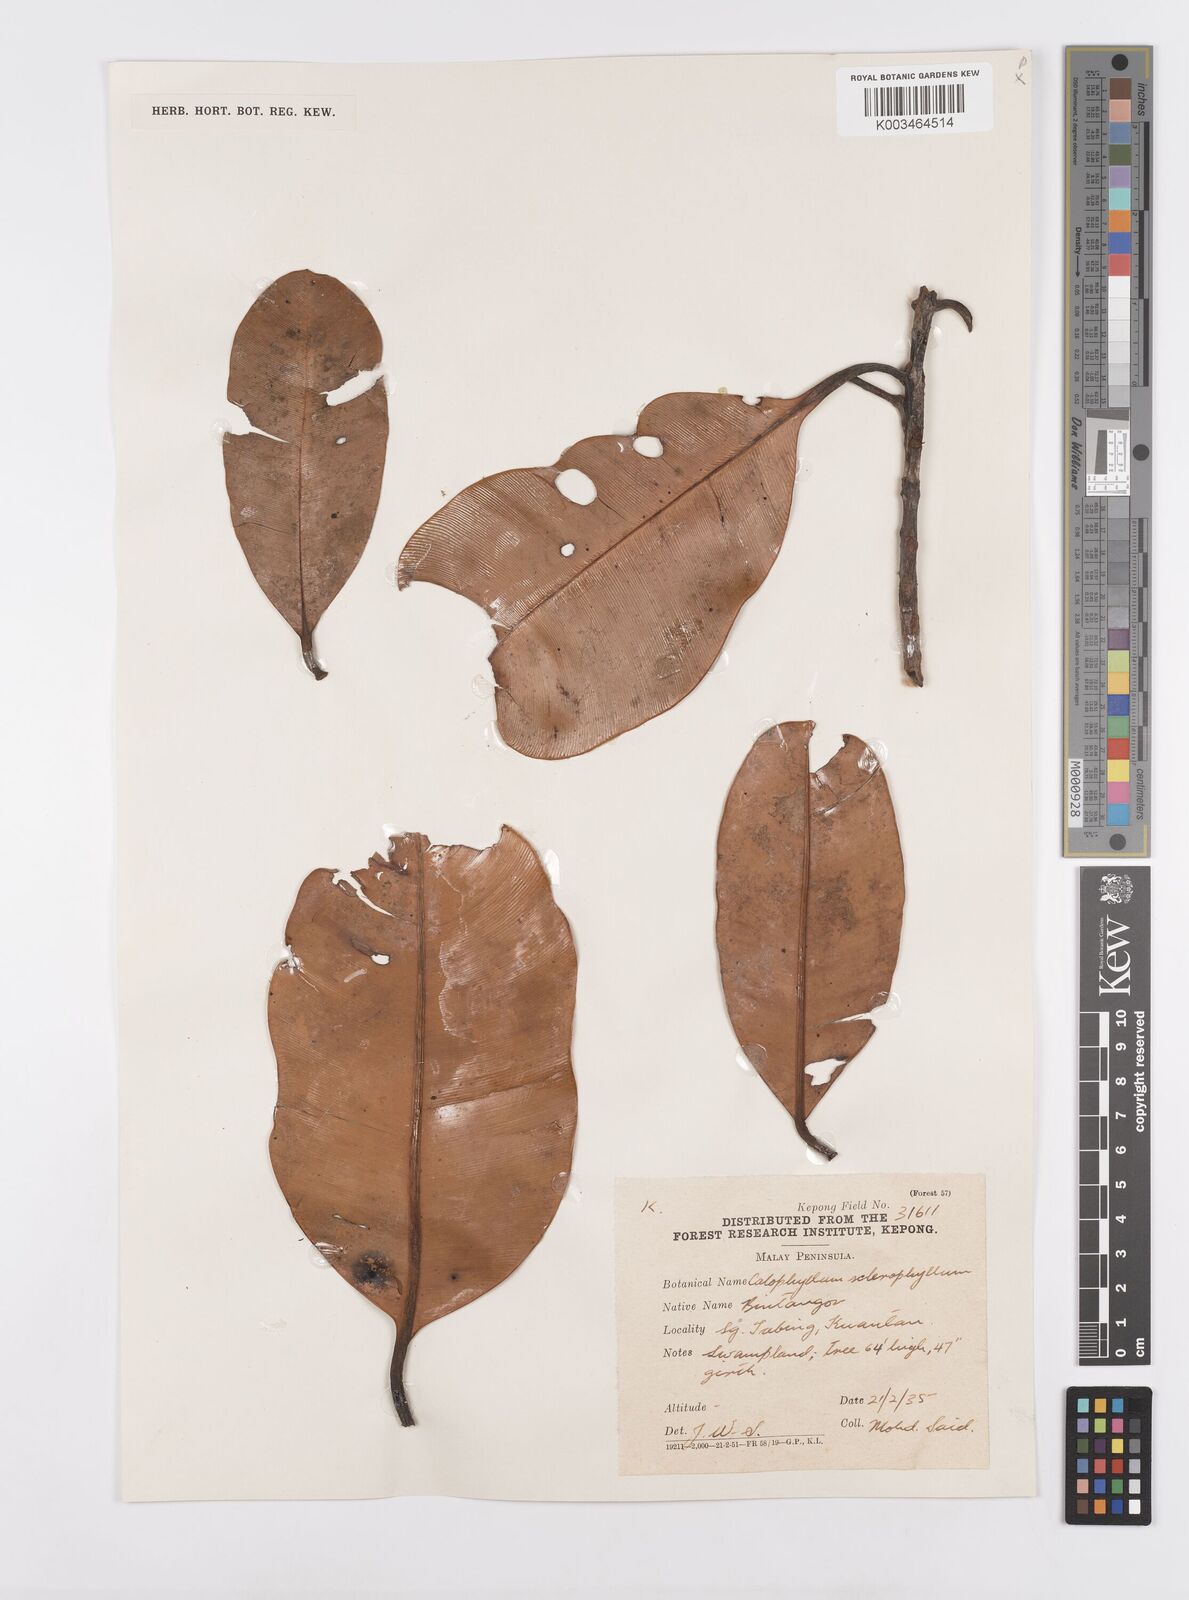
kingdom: Plantae
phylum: Tracheophyta
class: Magnoliopsida
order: Malpighiales
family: Calophyllaceae
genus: Calophyllum
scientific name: Calophyllum sclerophyllum
